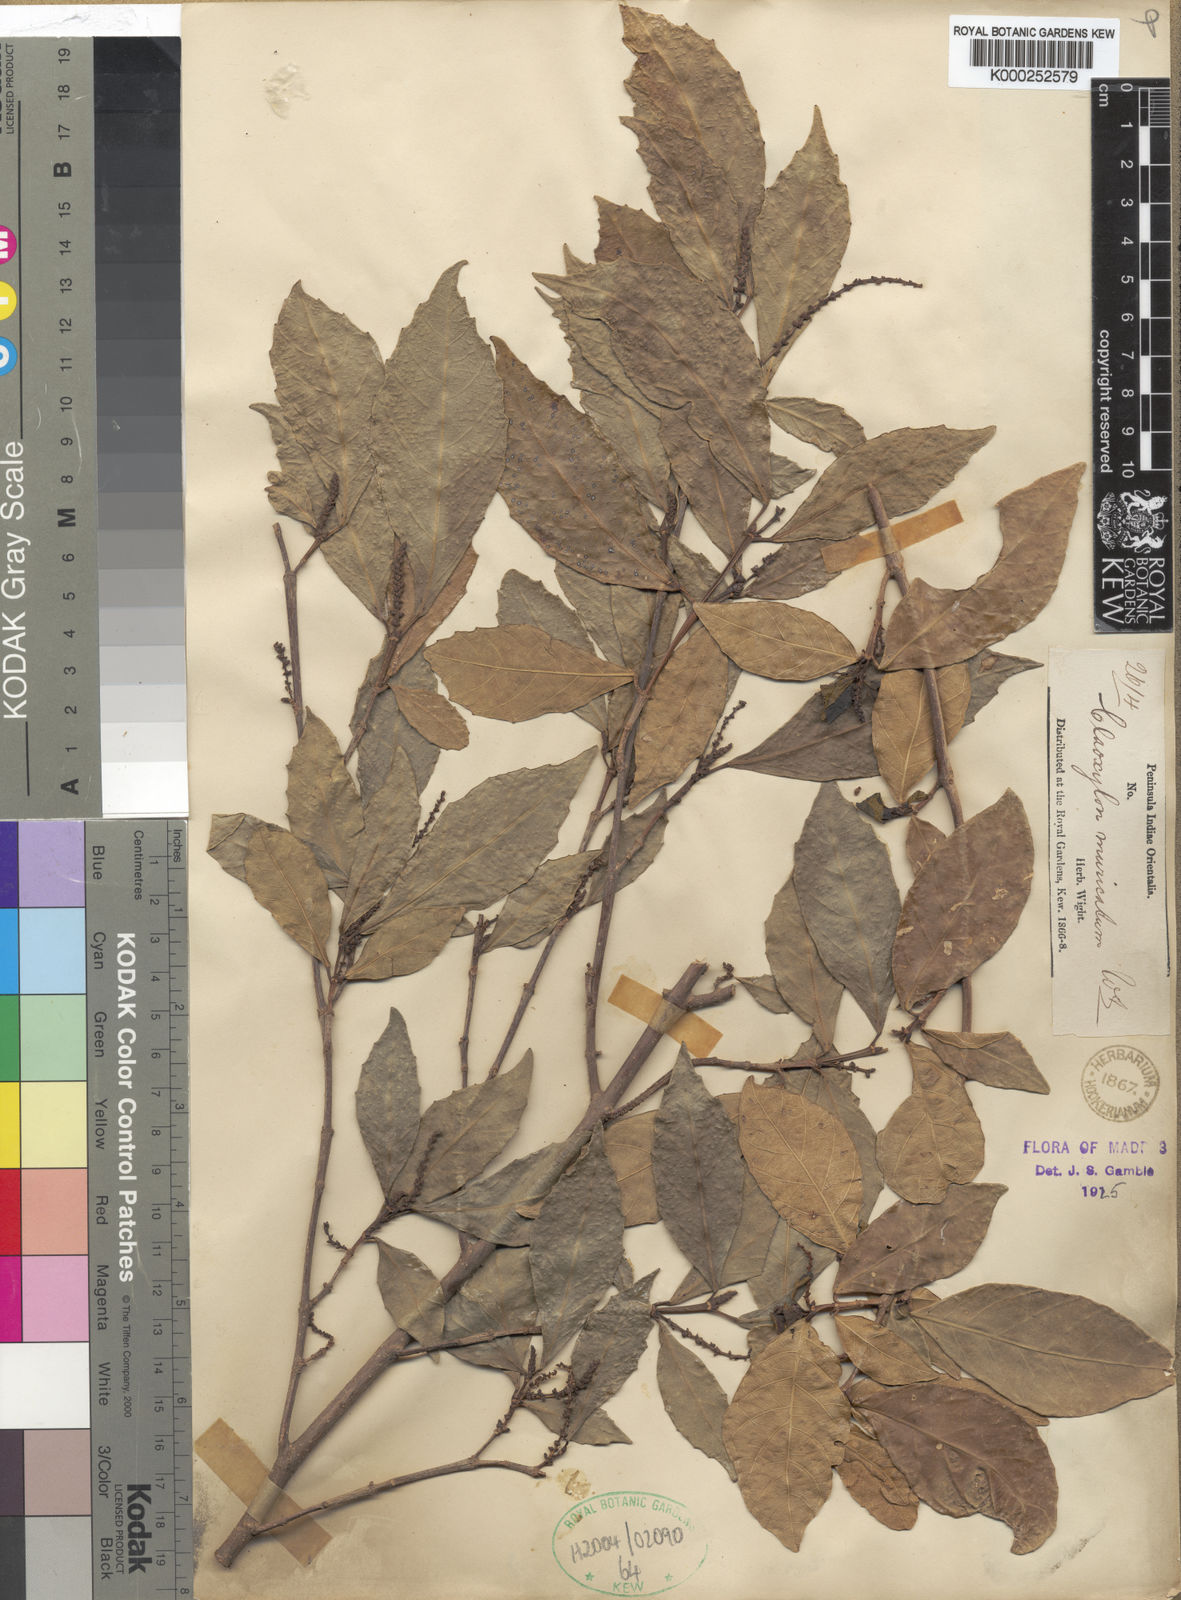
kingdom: Plantae
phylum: Tracheophyta
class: Magnoliopsida
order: Malpighiales
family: Euphorbiaceae
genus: Mallotus
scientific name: Mallotus resinosus
